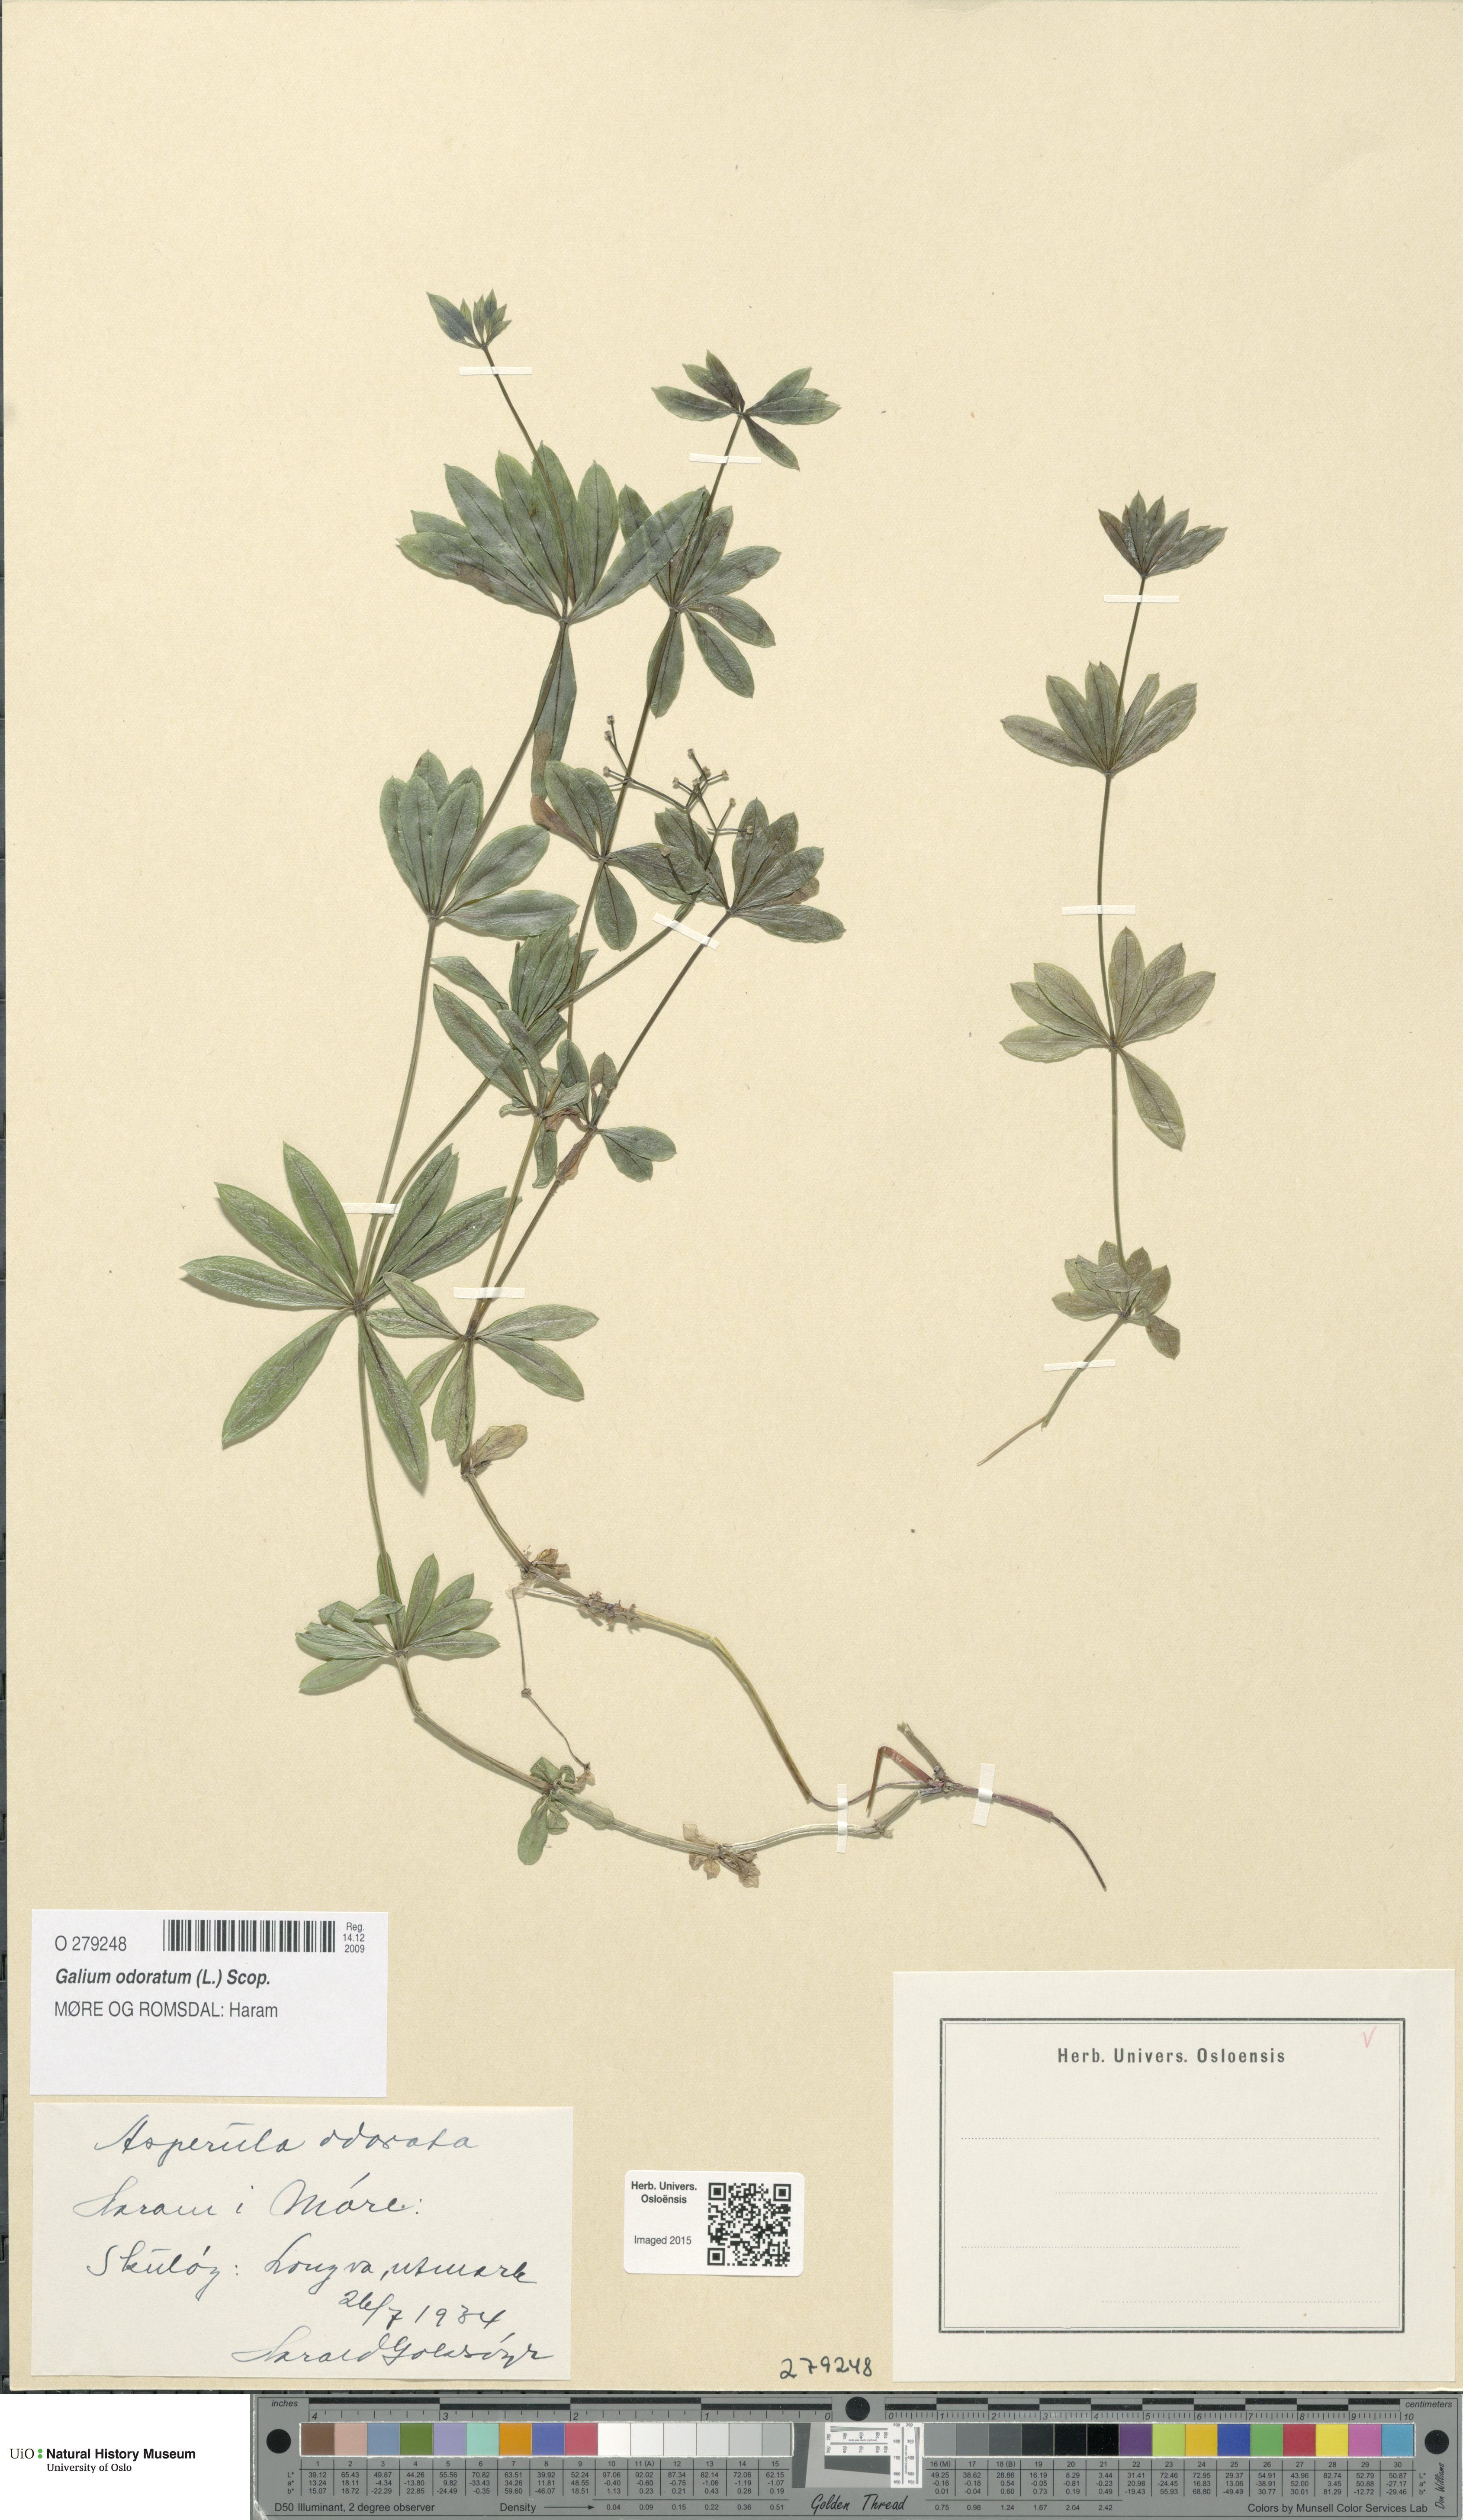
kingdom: Plantae
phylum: Tracheophyta
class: Magnoliopsida
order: Gentianales
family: Rubiaceae
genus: Galium
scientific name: Galium odoratum
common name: Sweet woodruff
